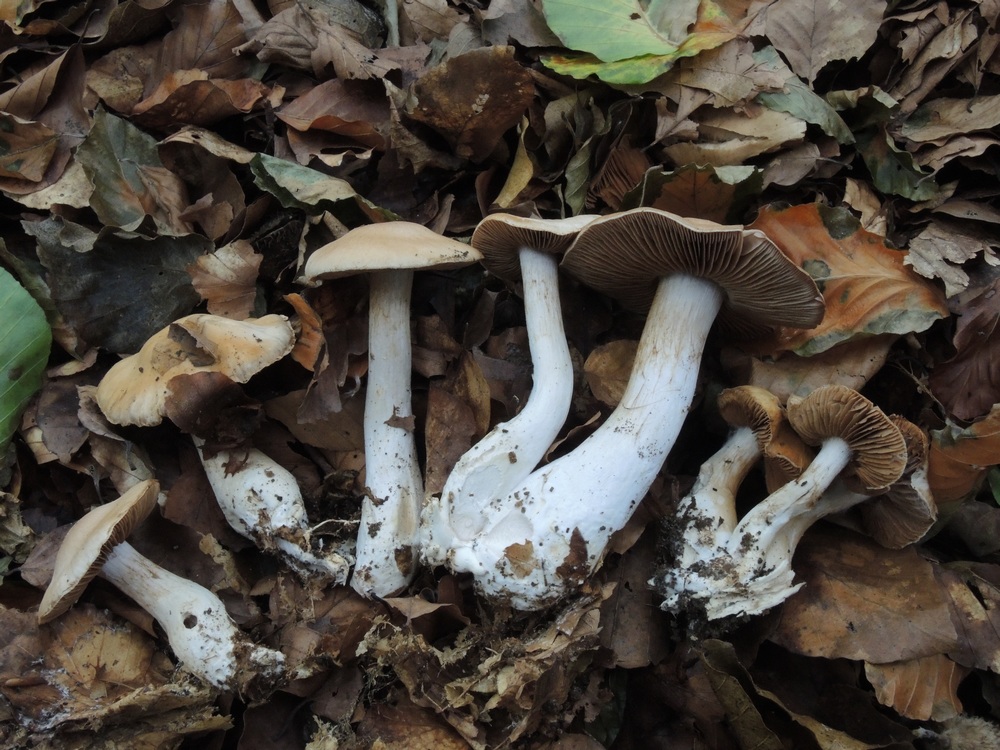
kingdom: Fungi
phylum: Basidiomycota
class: Agaricomycetes
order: Agaricales
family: Cortinariaceae
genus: Cortinarius
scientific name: Cortinarius turgidus
